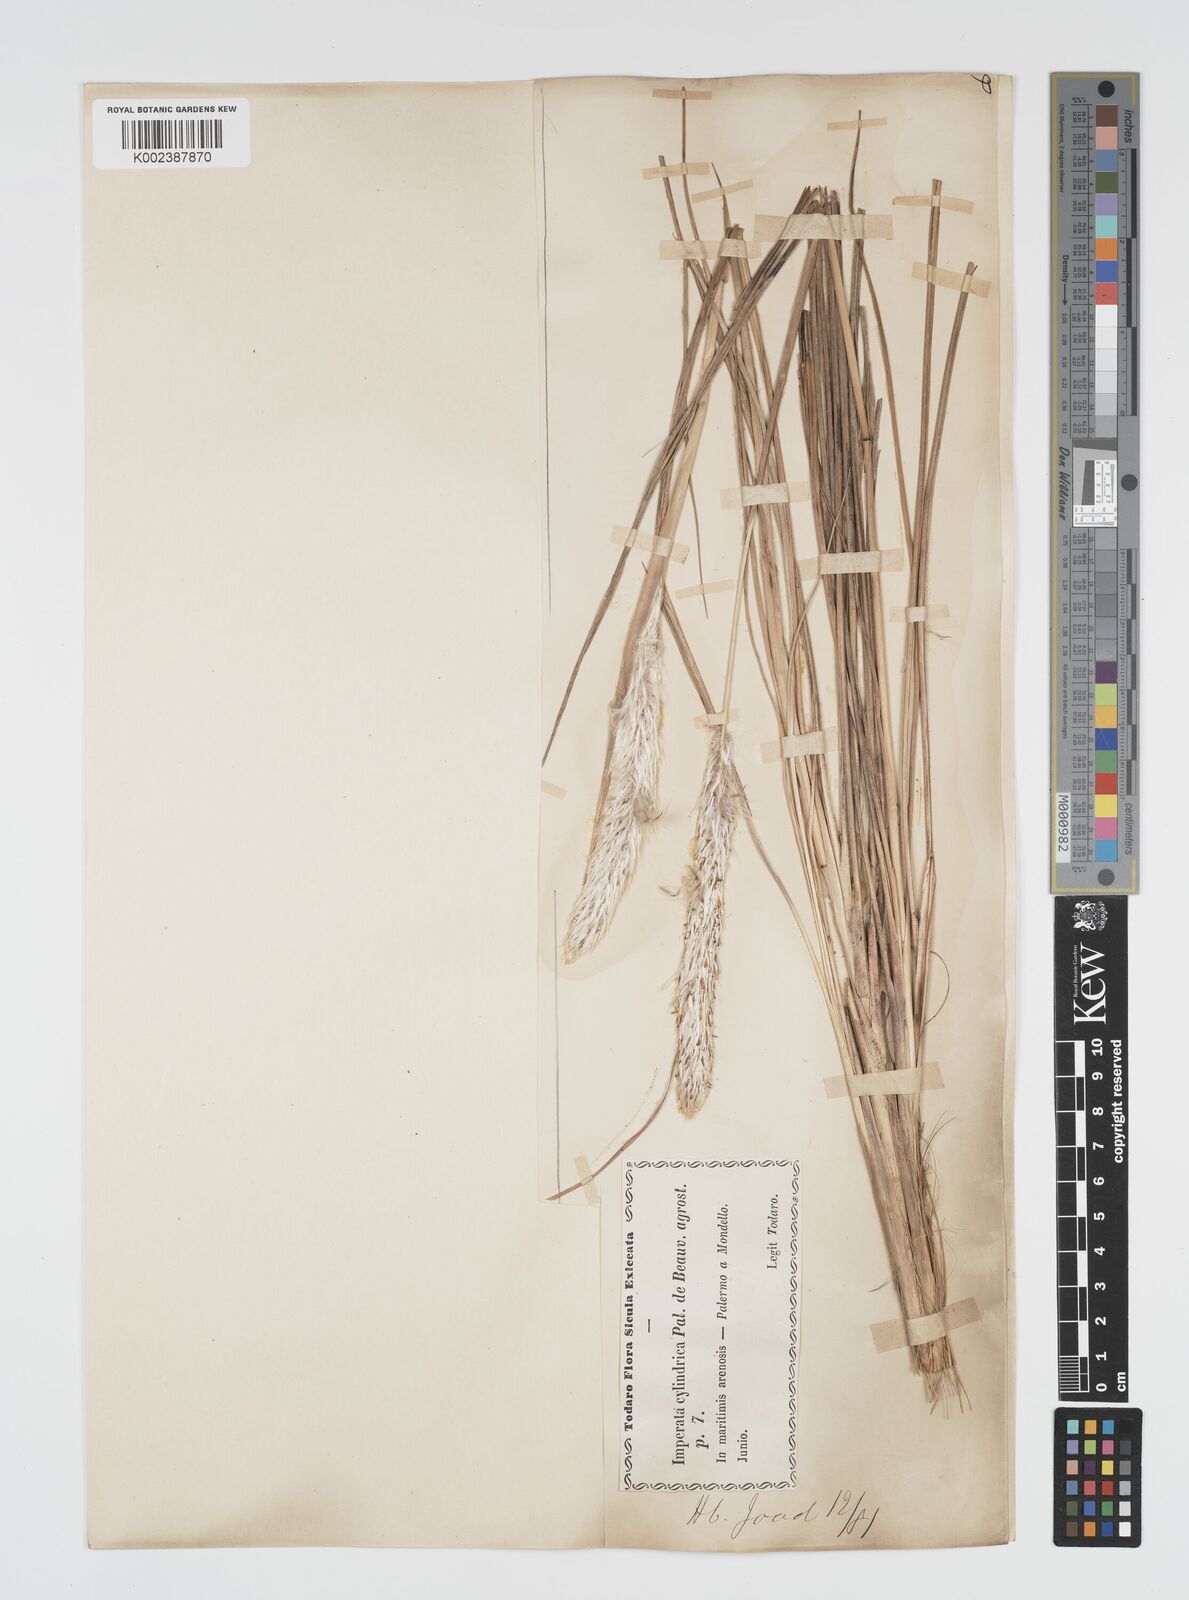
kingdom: Plantae
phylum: Tracheophyta
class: Liliopsida
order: Poales
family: Poaceae
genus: Imperata
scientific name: Imperata cylindrica
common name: Cogongrass
